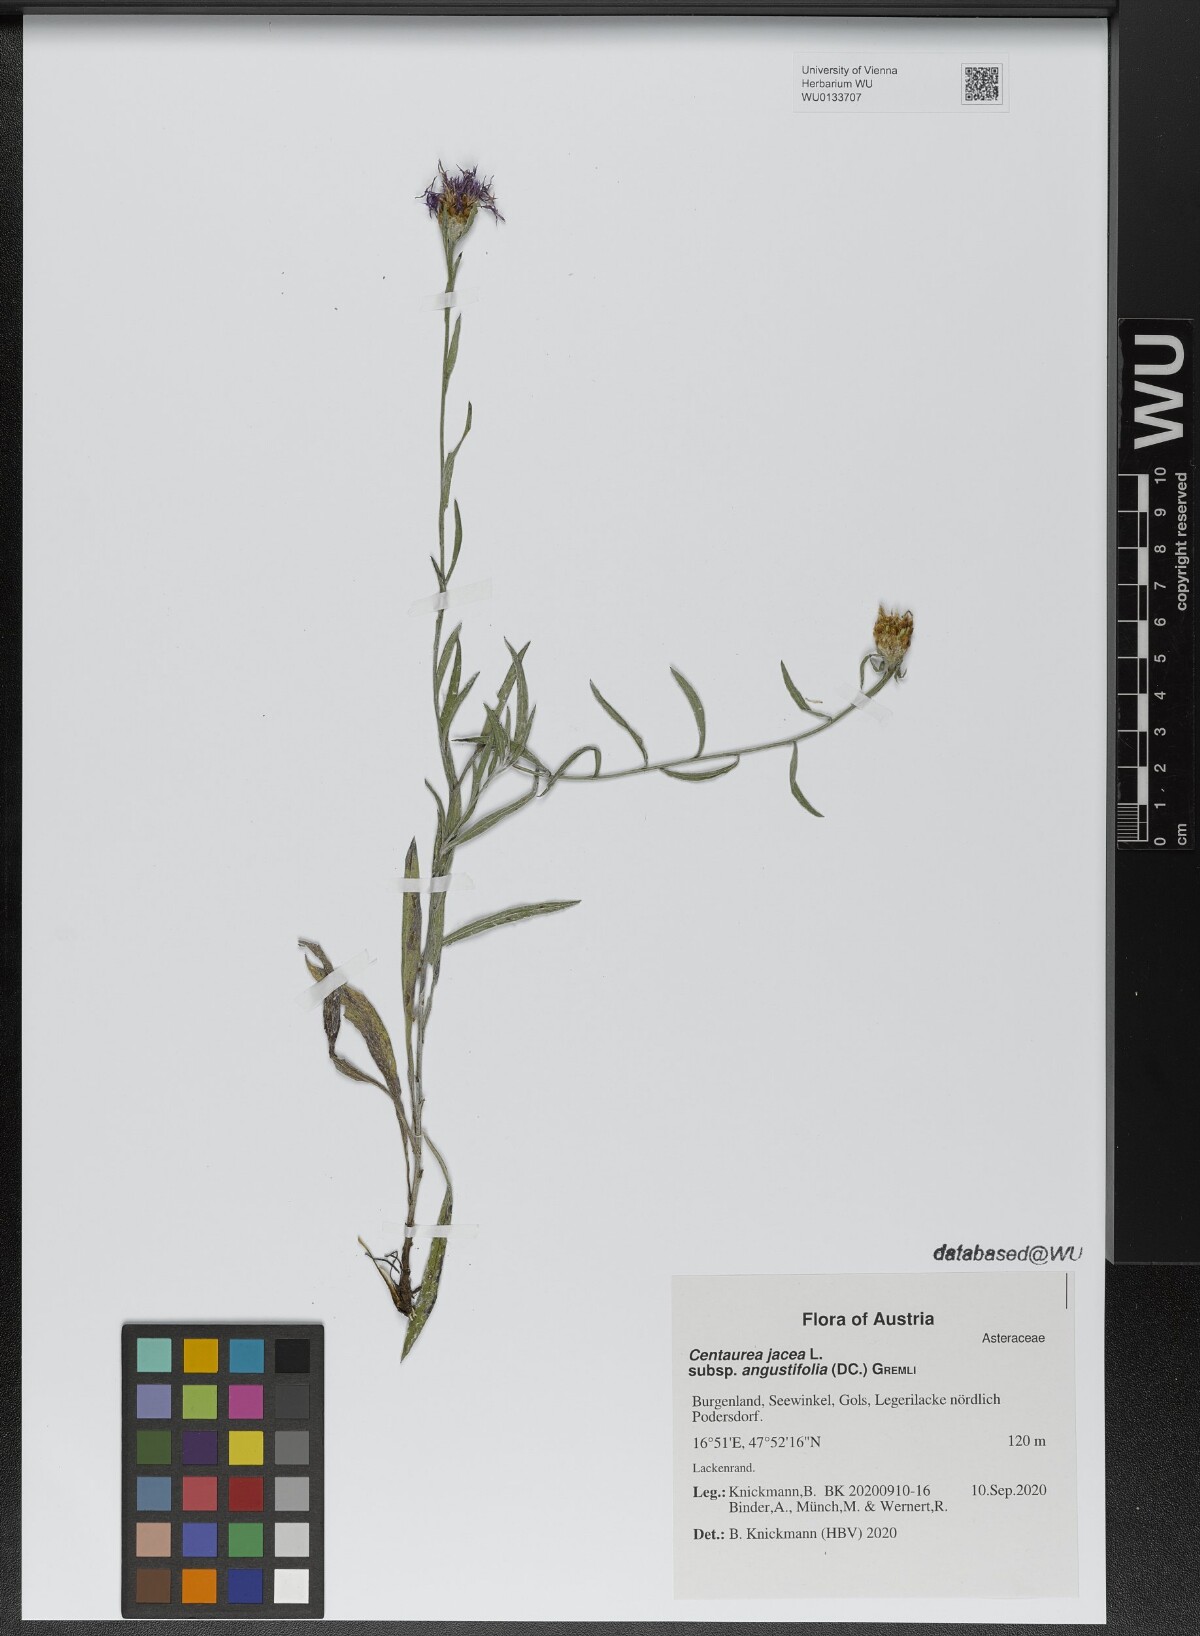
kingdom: Plantae
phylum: Tracheophyta
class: Magnoliopsida
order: Asterales
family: Asteraceae
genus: Centaurea
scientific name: Centaurea pannonica
